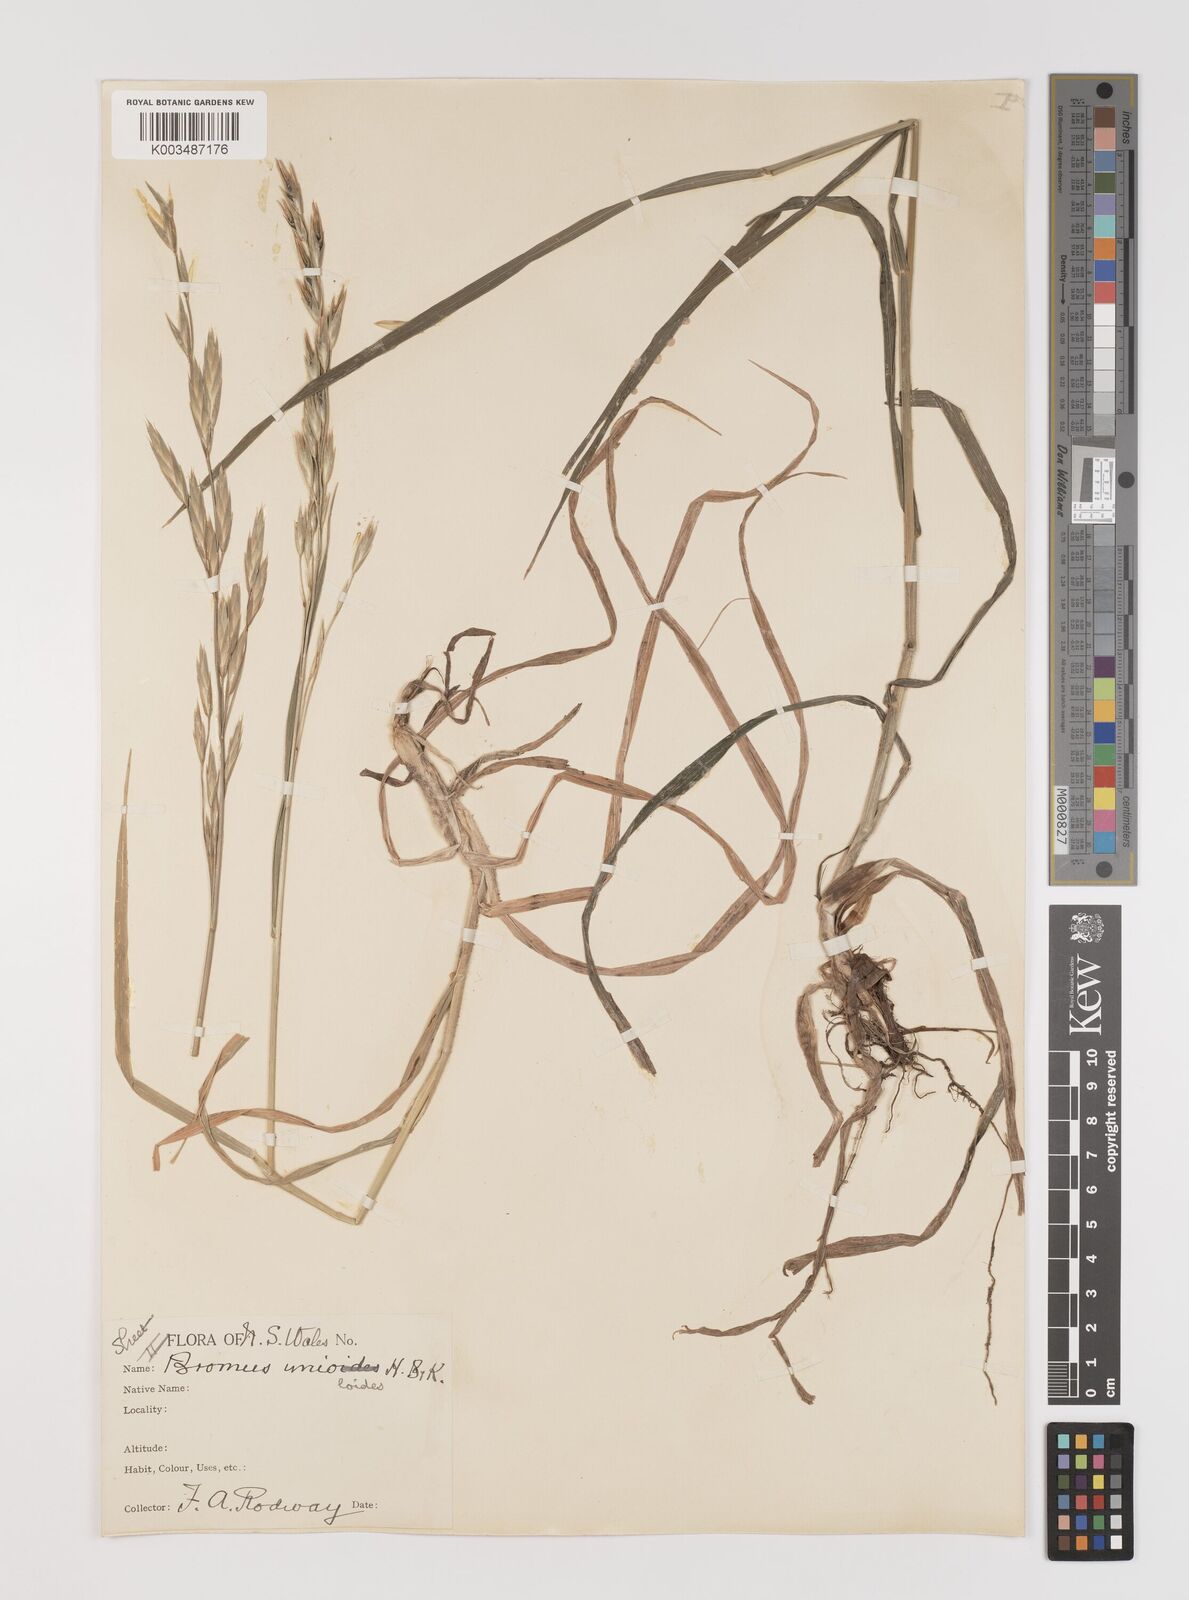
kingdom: Plantae
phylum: Tracheophyta
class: Liliopsida
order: Poales
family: Poaceae
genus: Bromus
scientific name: Bromus catharticus
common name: Rescuegrass
